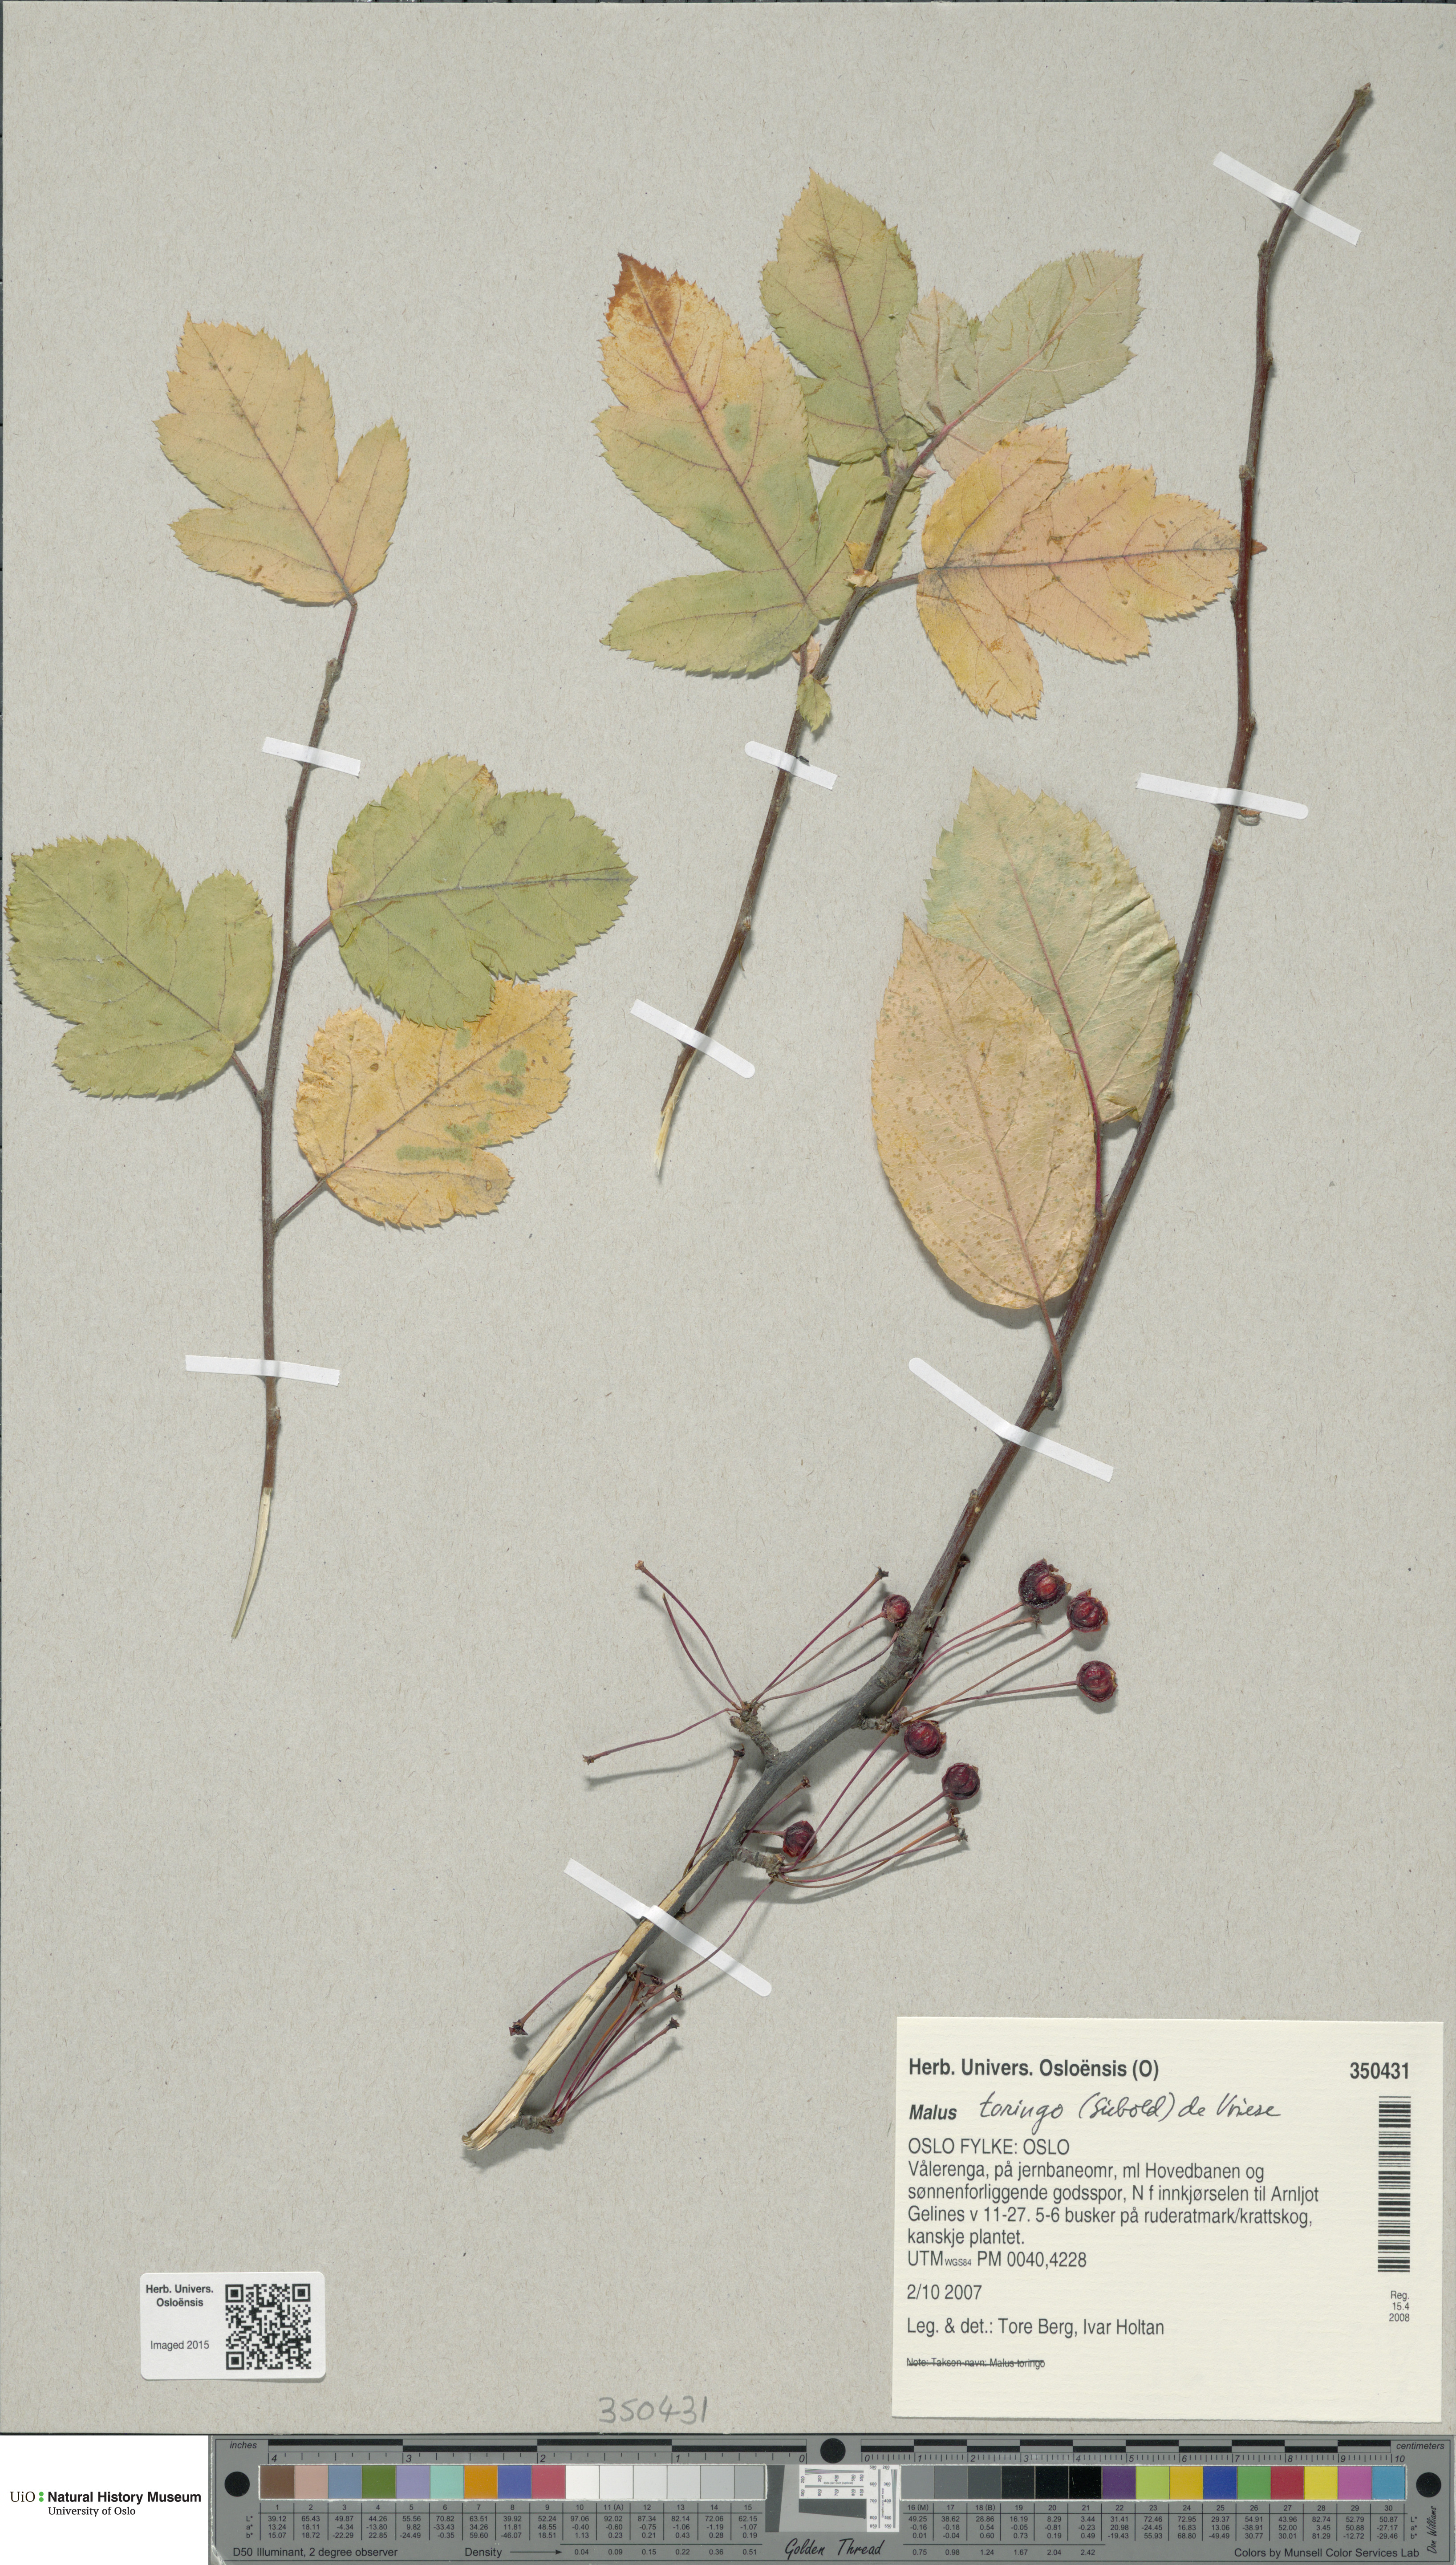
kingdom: Plantae
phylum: Tracheophyta
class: Magnoliopsida
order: Rosales
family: Rosaceae
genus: Malus
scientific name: Malus toringo
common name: Japanese crabapple
